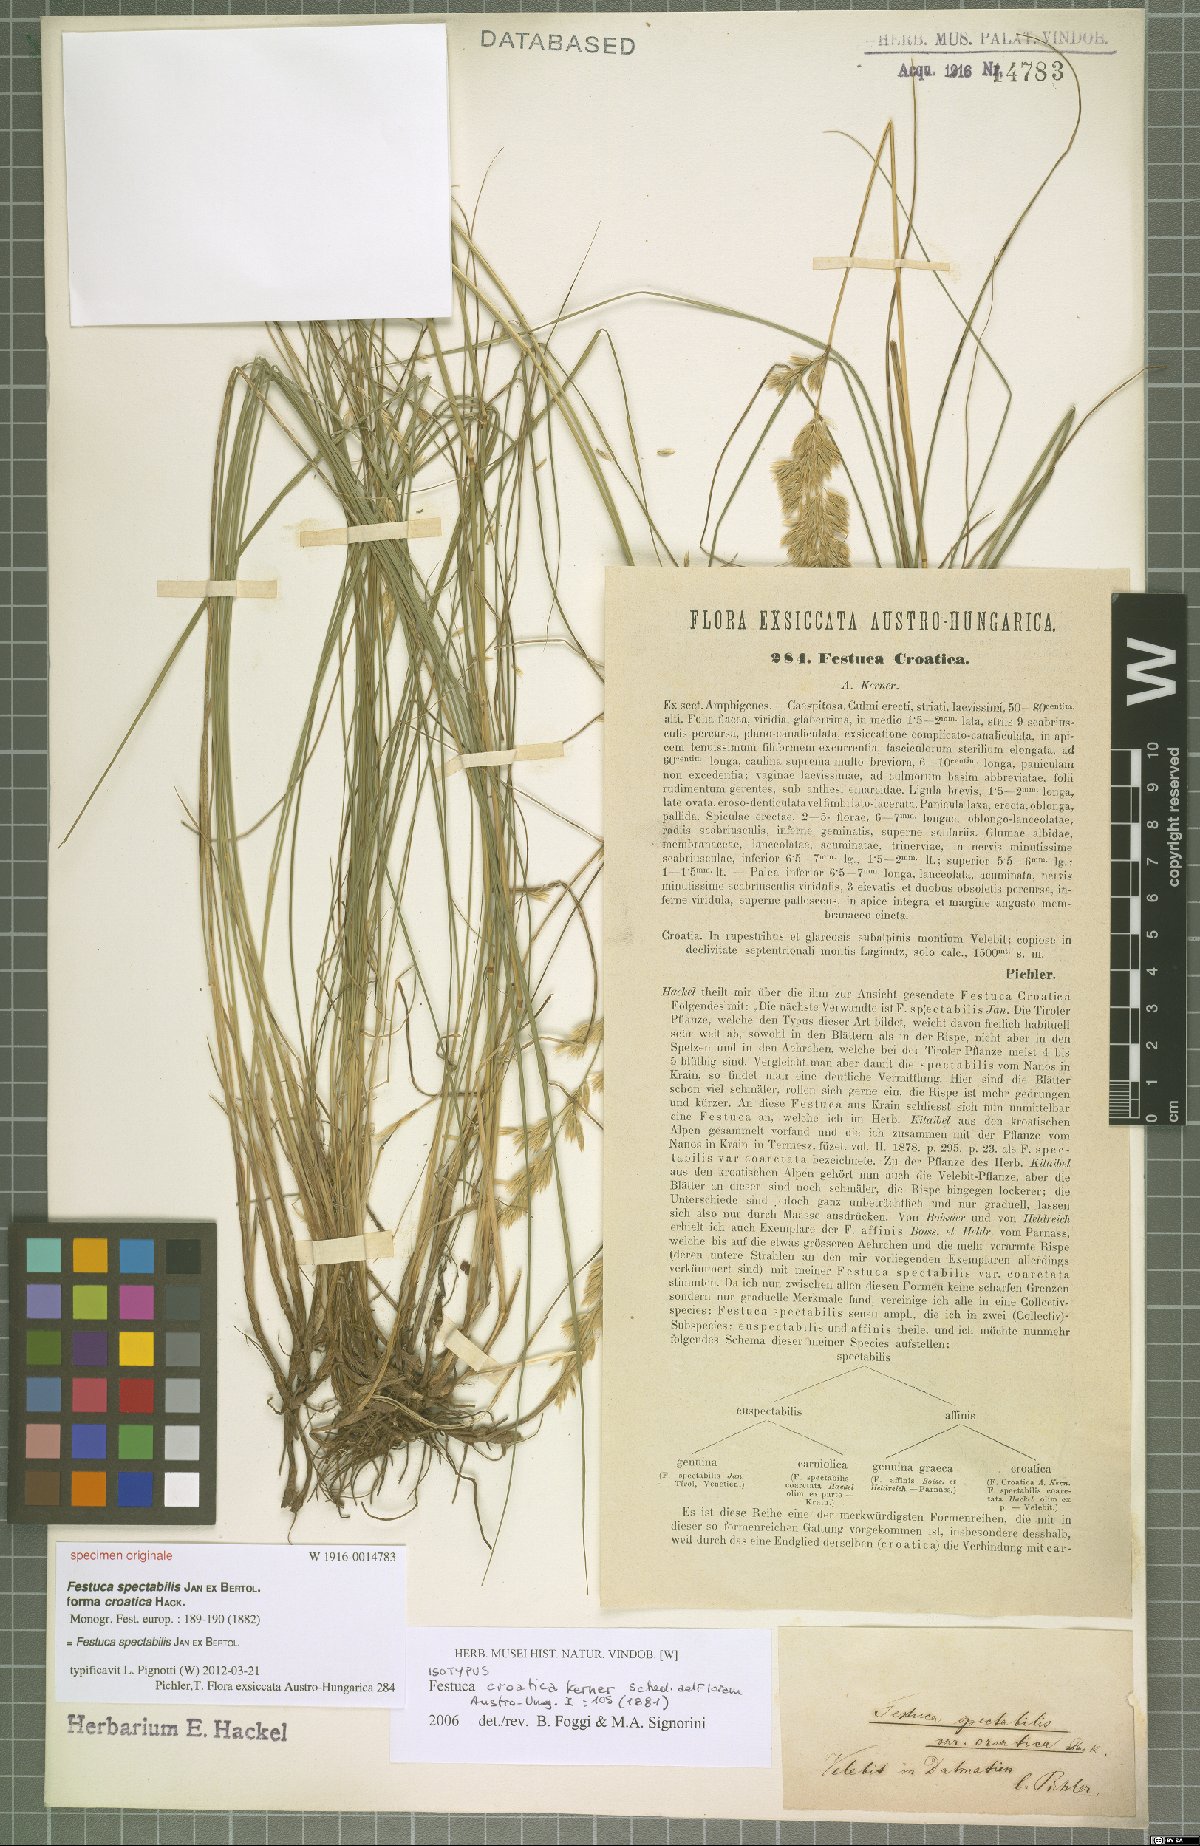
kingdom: Plantae
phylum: Tracheophyta
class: Liliopsida
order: Poales
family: Poaceae
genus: Festuca
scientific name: Festuca spectabilis
